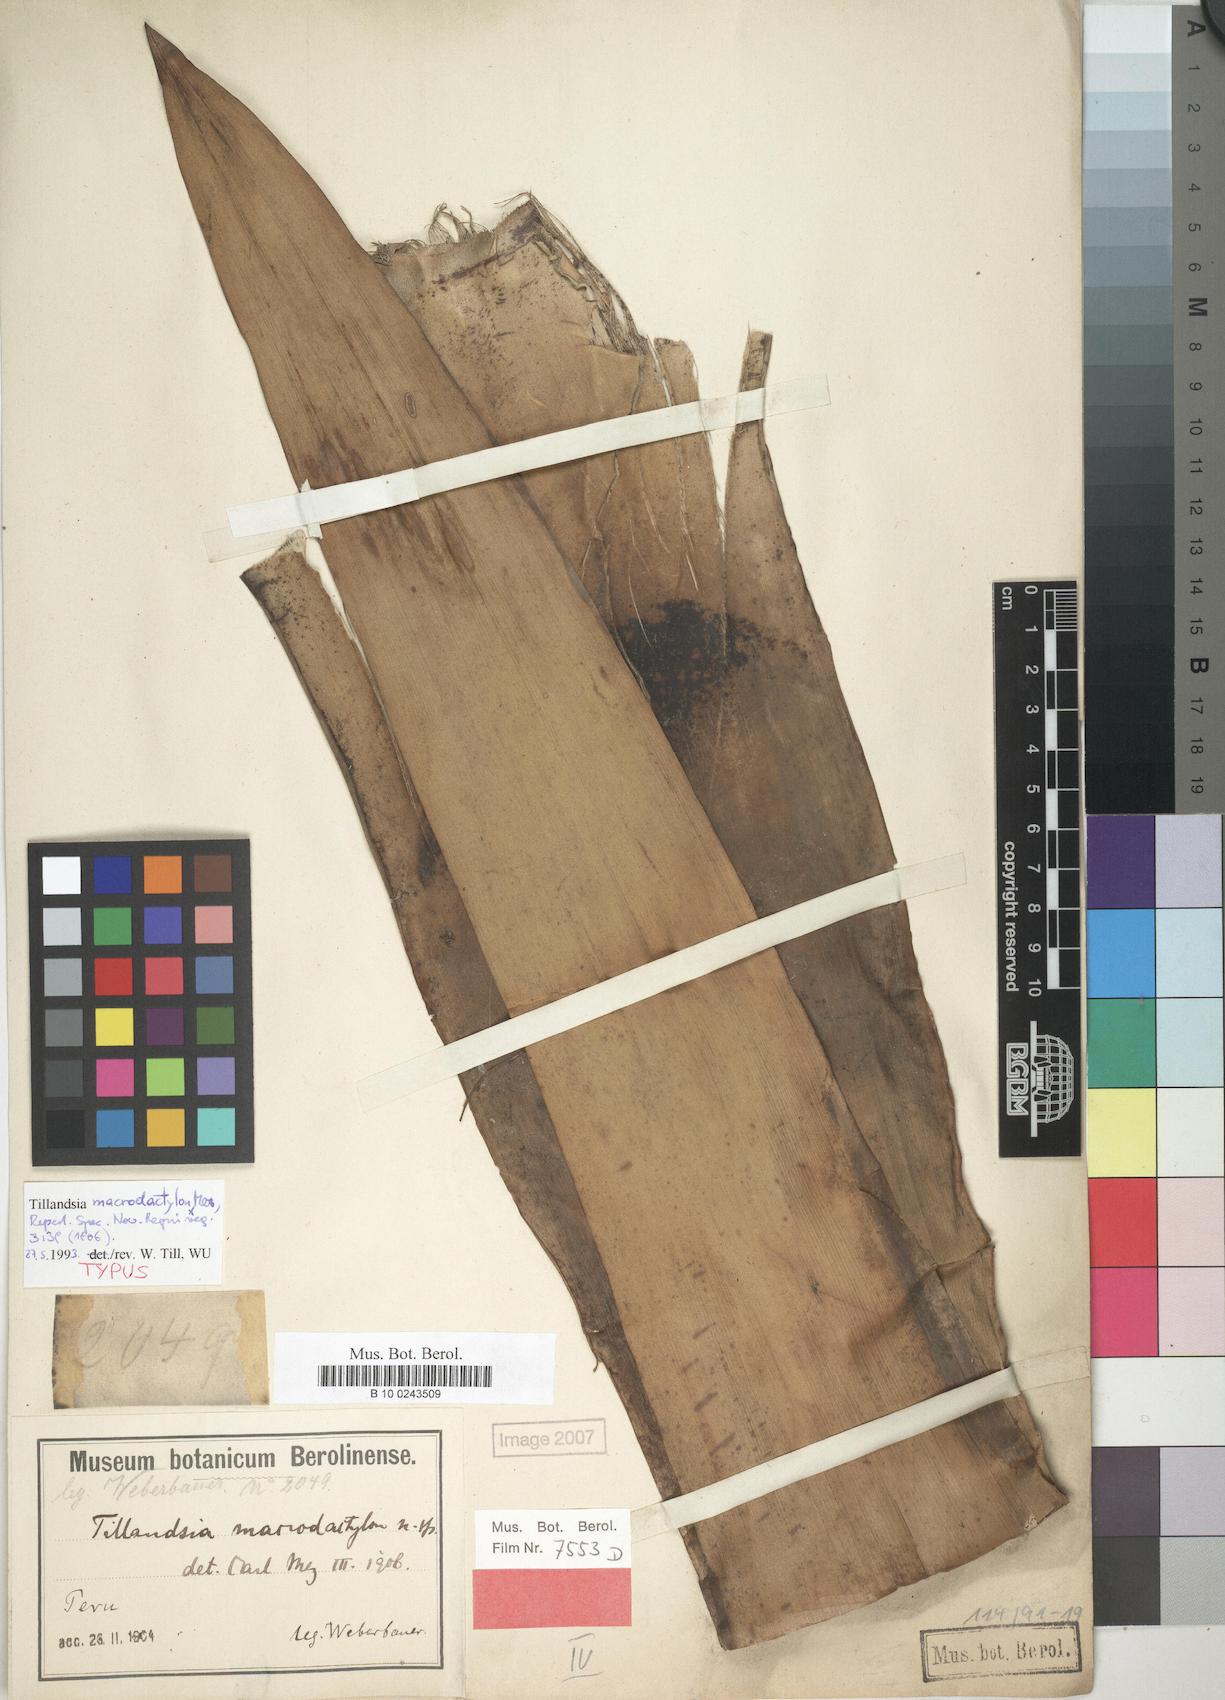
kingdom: Plantae
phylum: Tracheophyta
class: Liliopsida
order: Poales
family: Bromeliaceae
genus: Tillandsia
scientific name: Tillandsia macrodactylon
